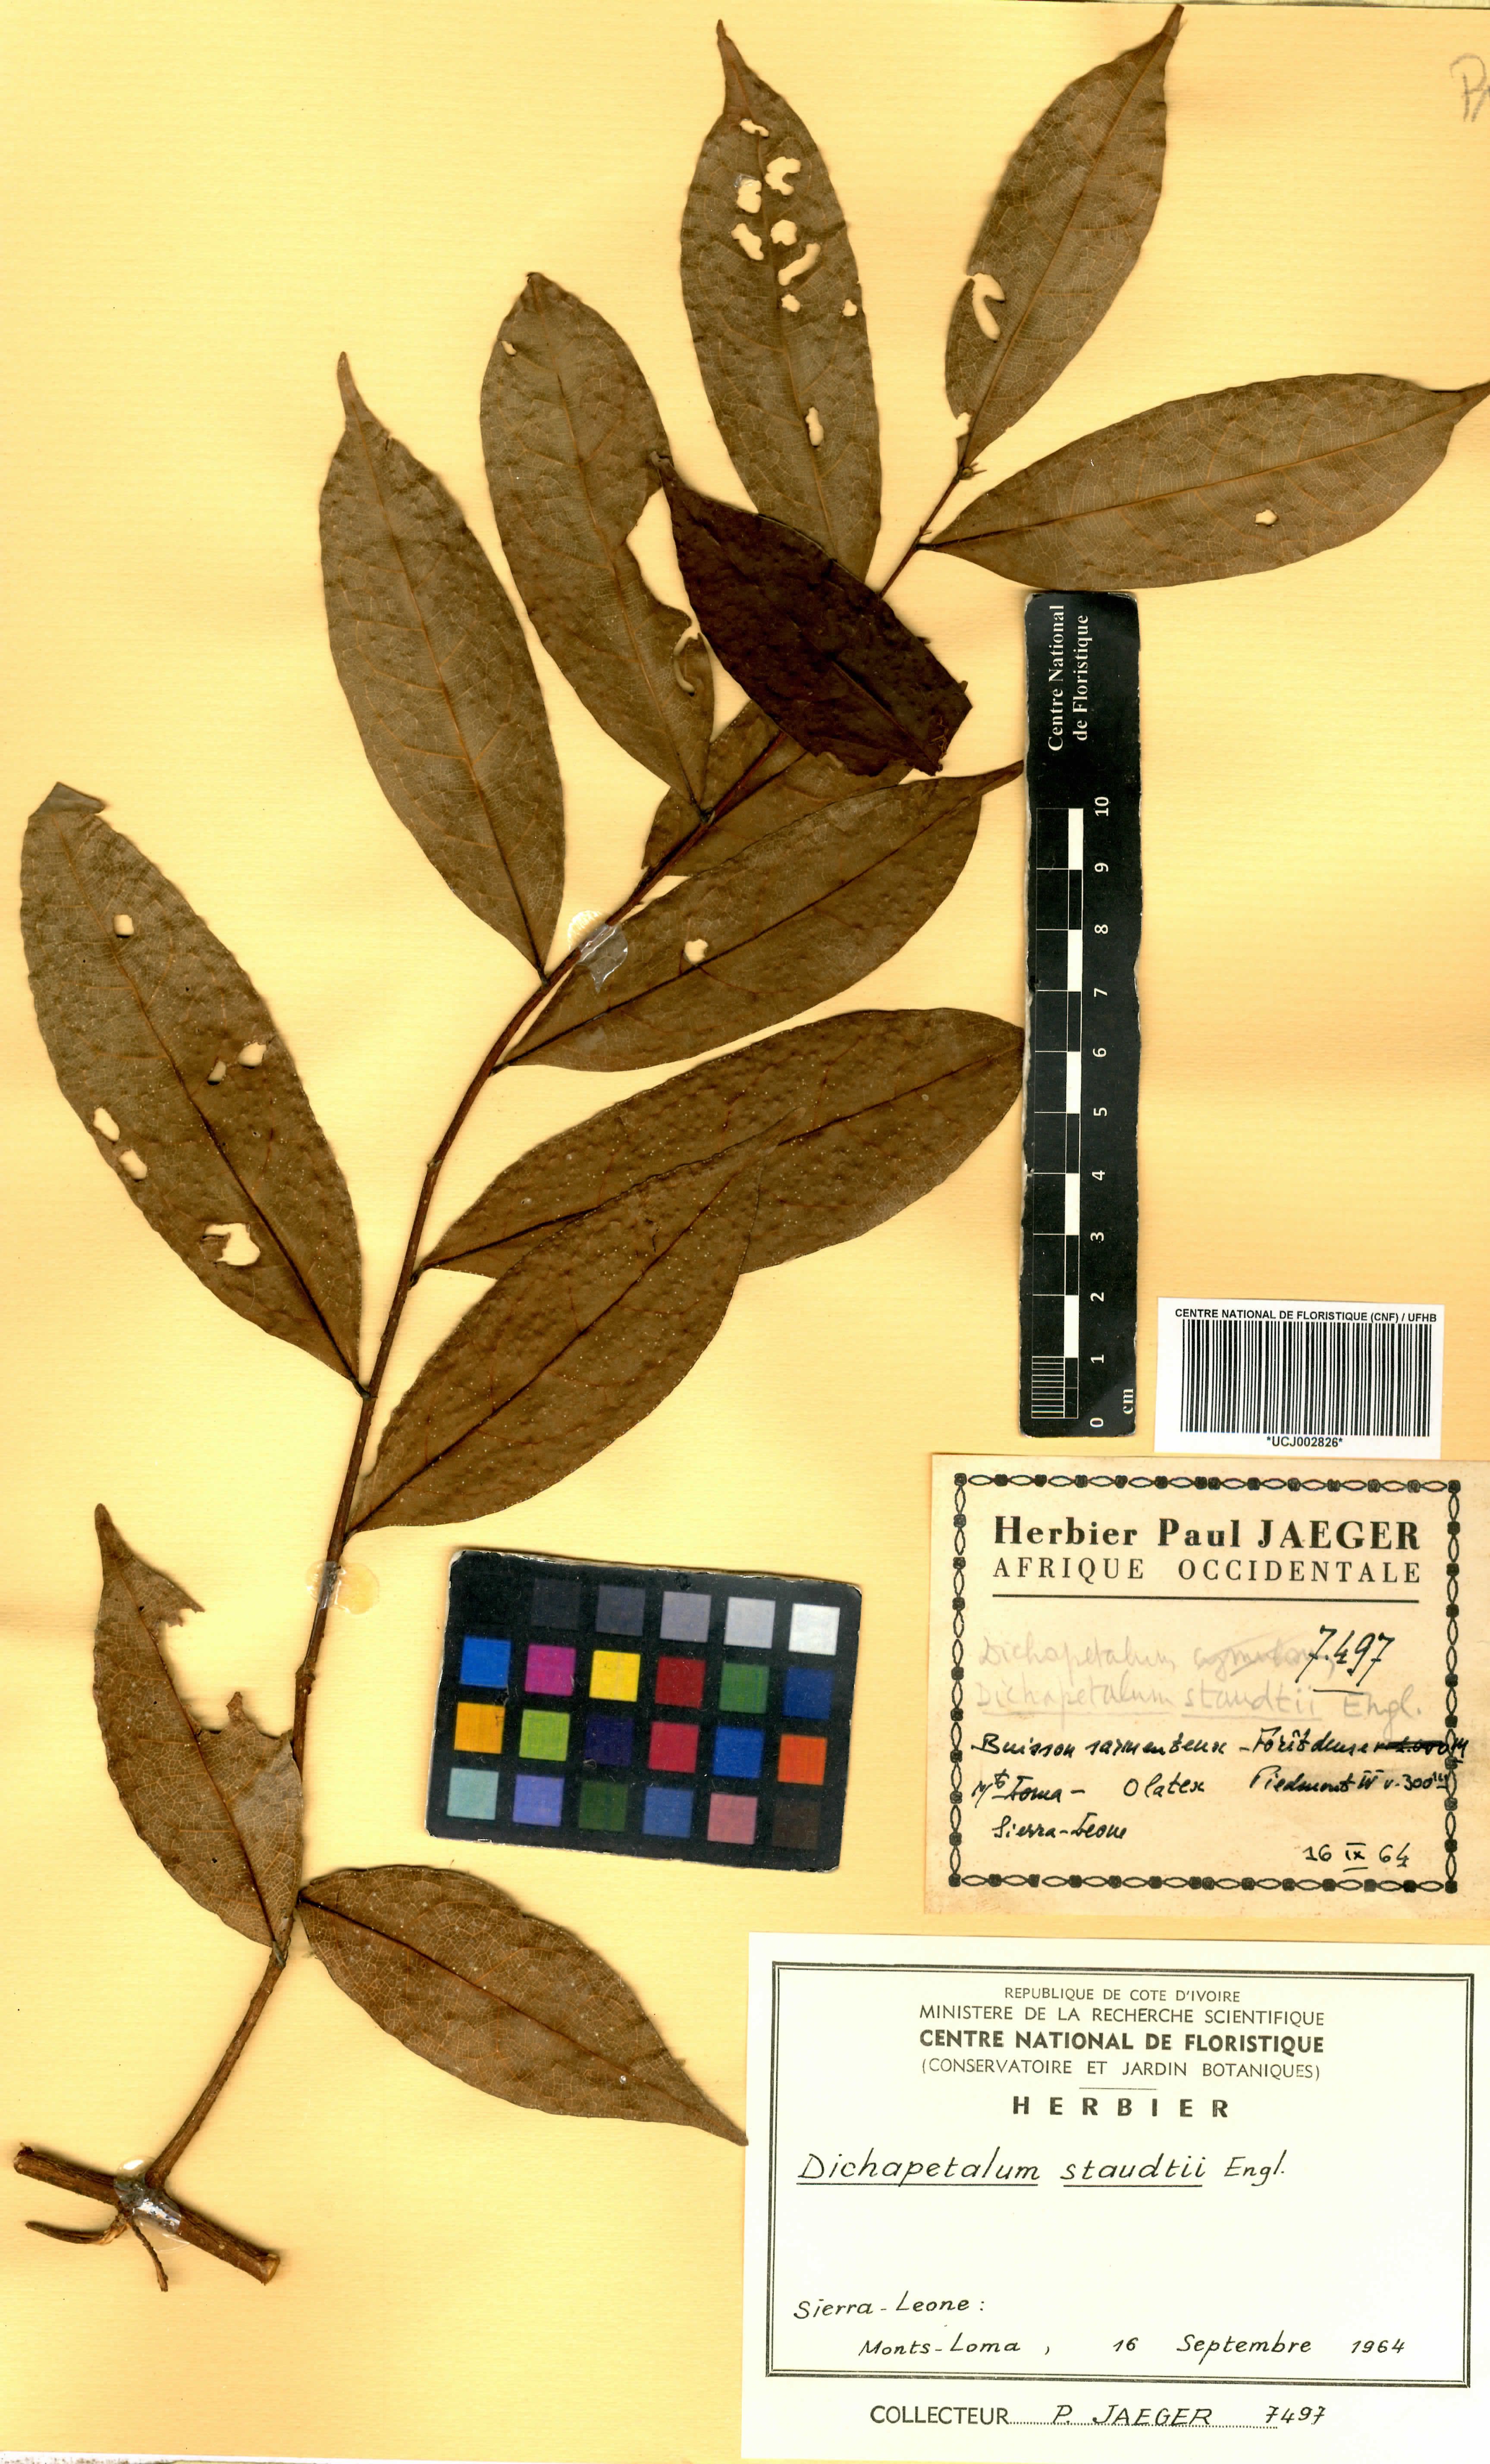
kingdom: Plantae
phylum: Tracheophyta
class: Magnoliopsida
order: Malpighiales
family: Dichapetalaceae
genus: Dichapetalum
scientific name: Dichapetalum staudtii
